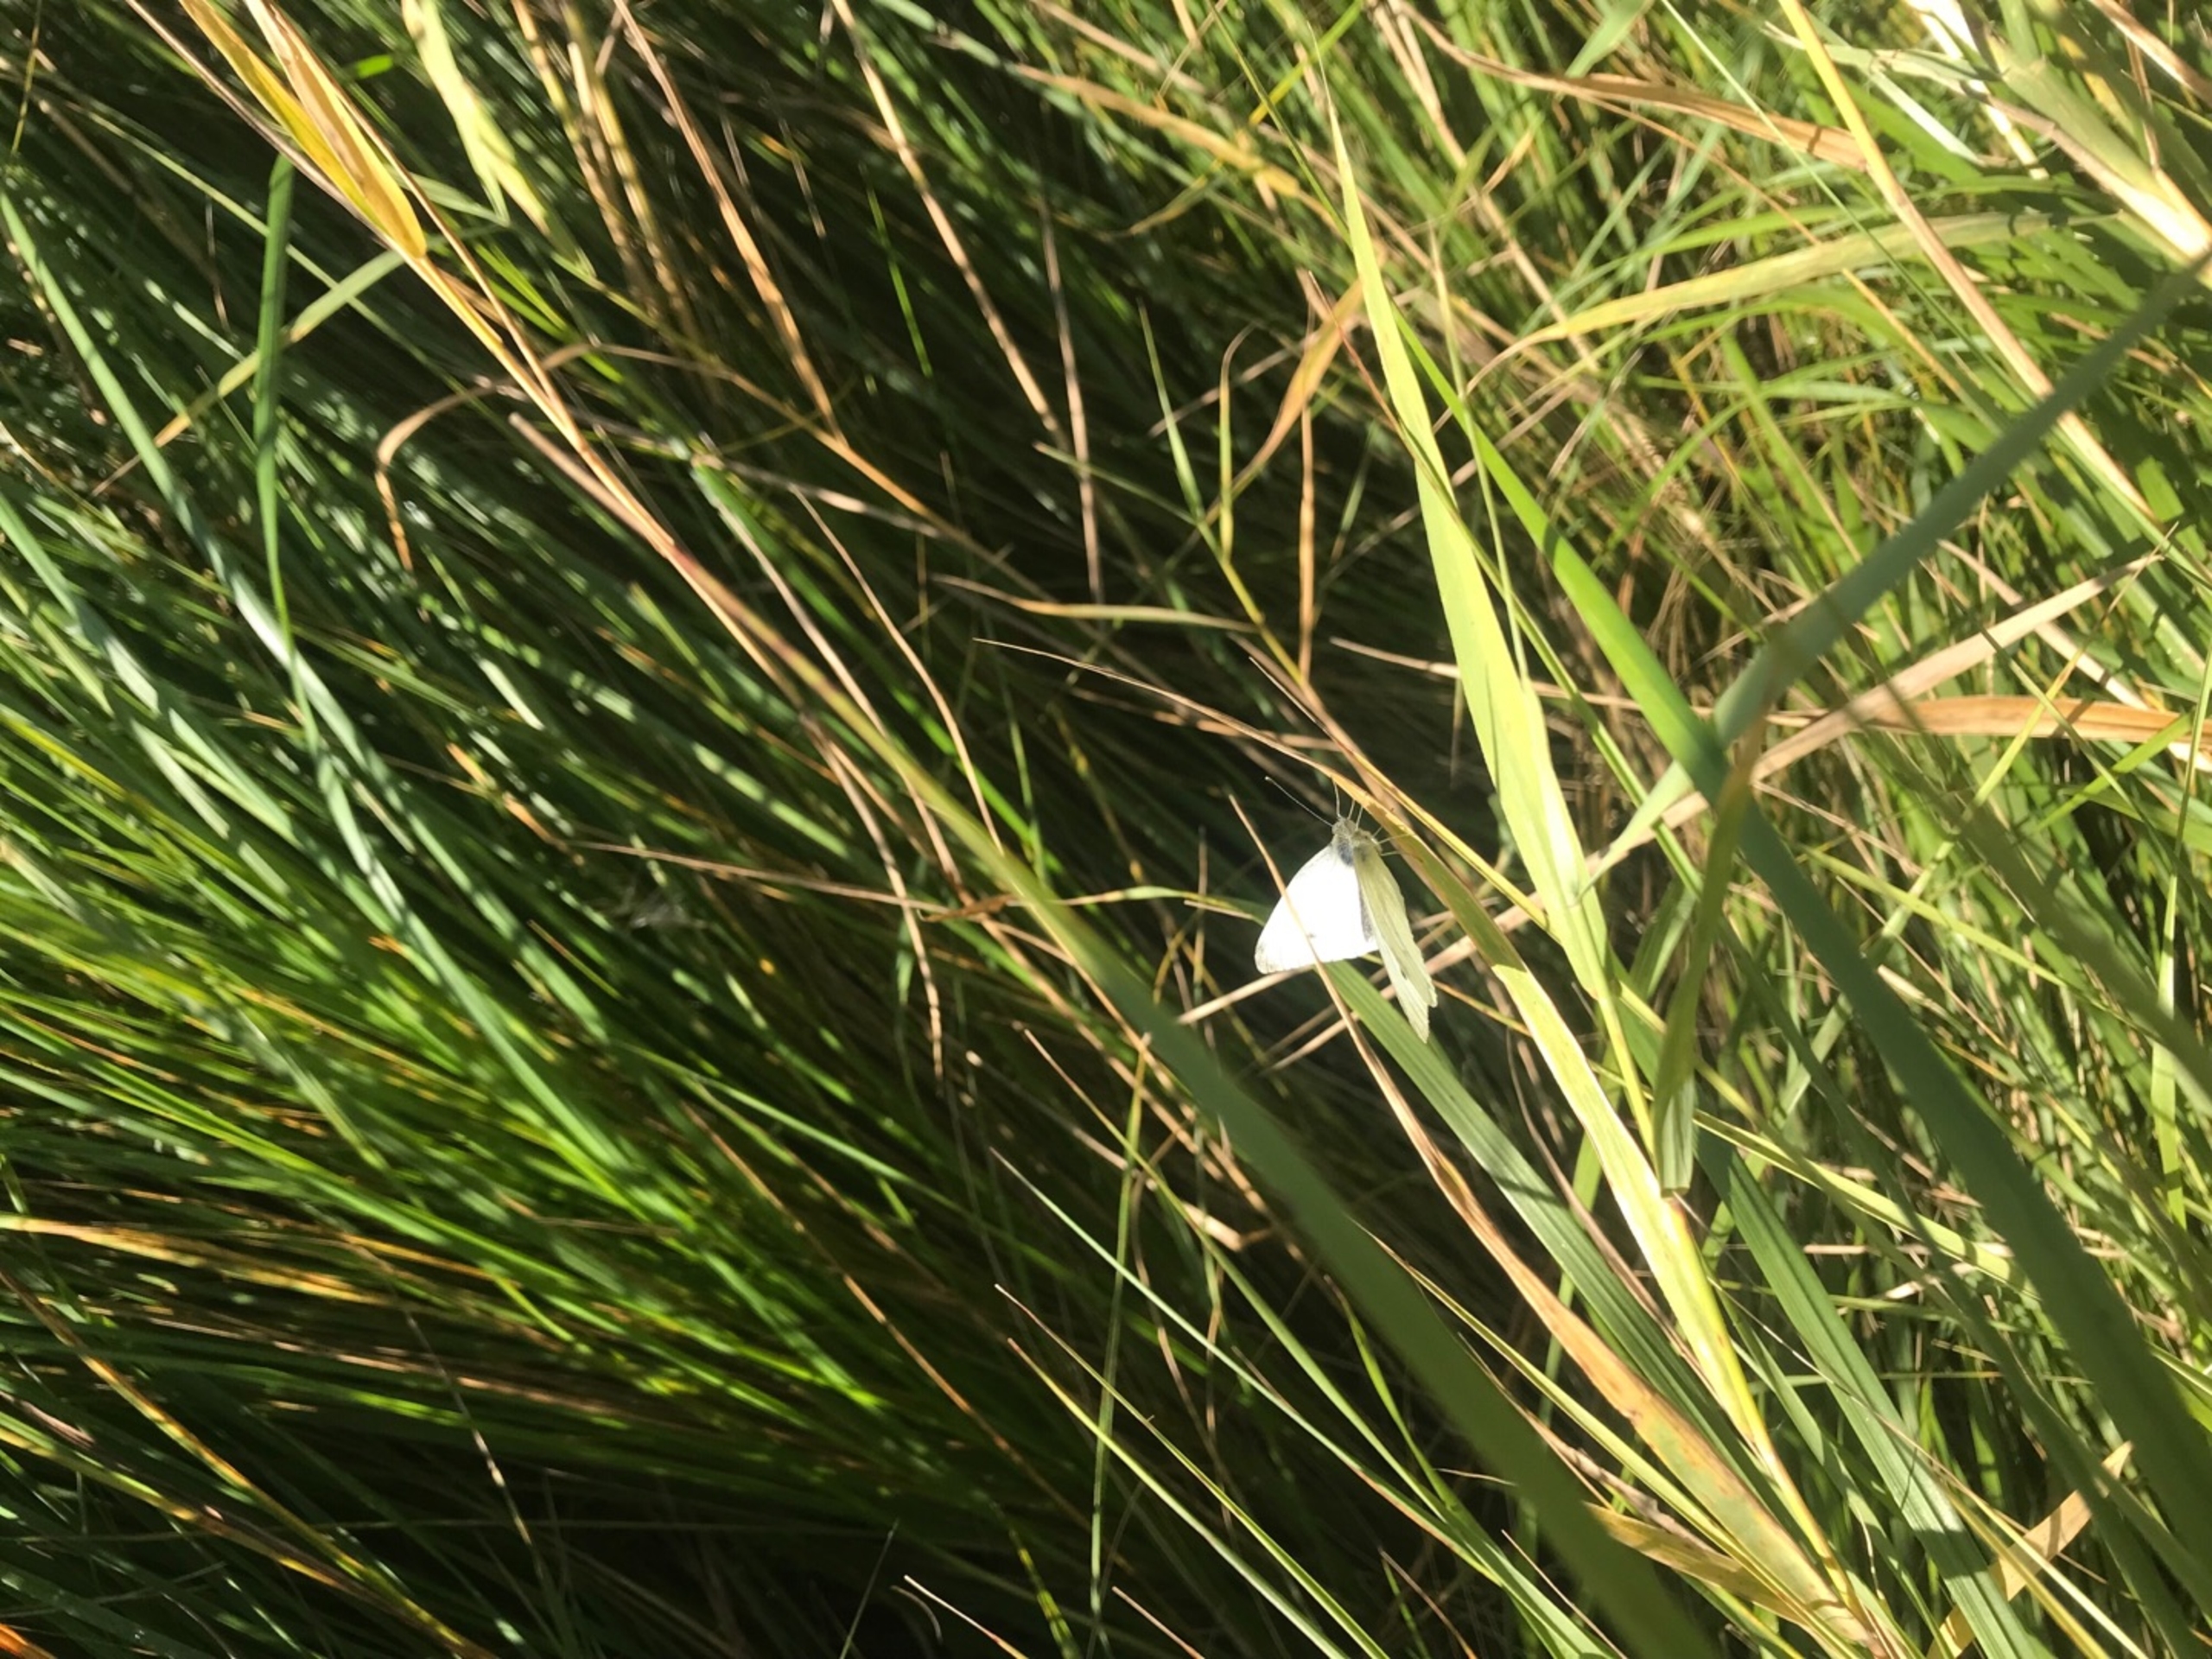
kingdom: Animalia
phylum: Arthropoda
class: Insecta
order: Lepidoptera
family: Pieridae
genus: Pieris
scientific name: Pieris rapae
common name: Lille kålsommerfugl
